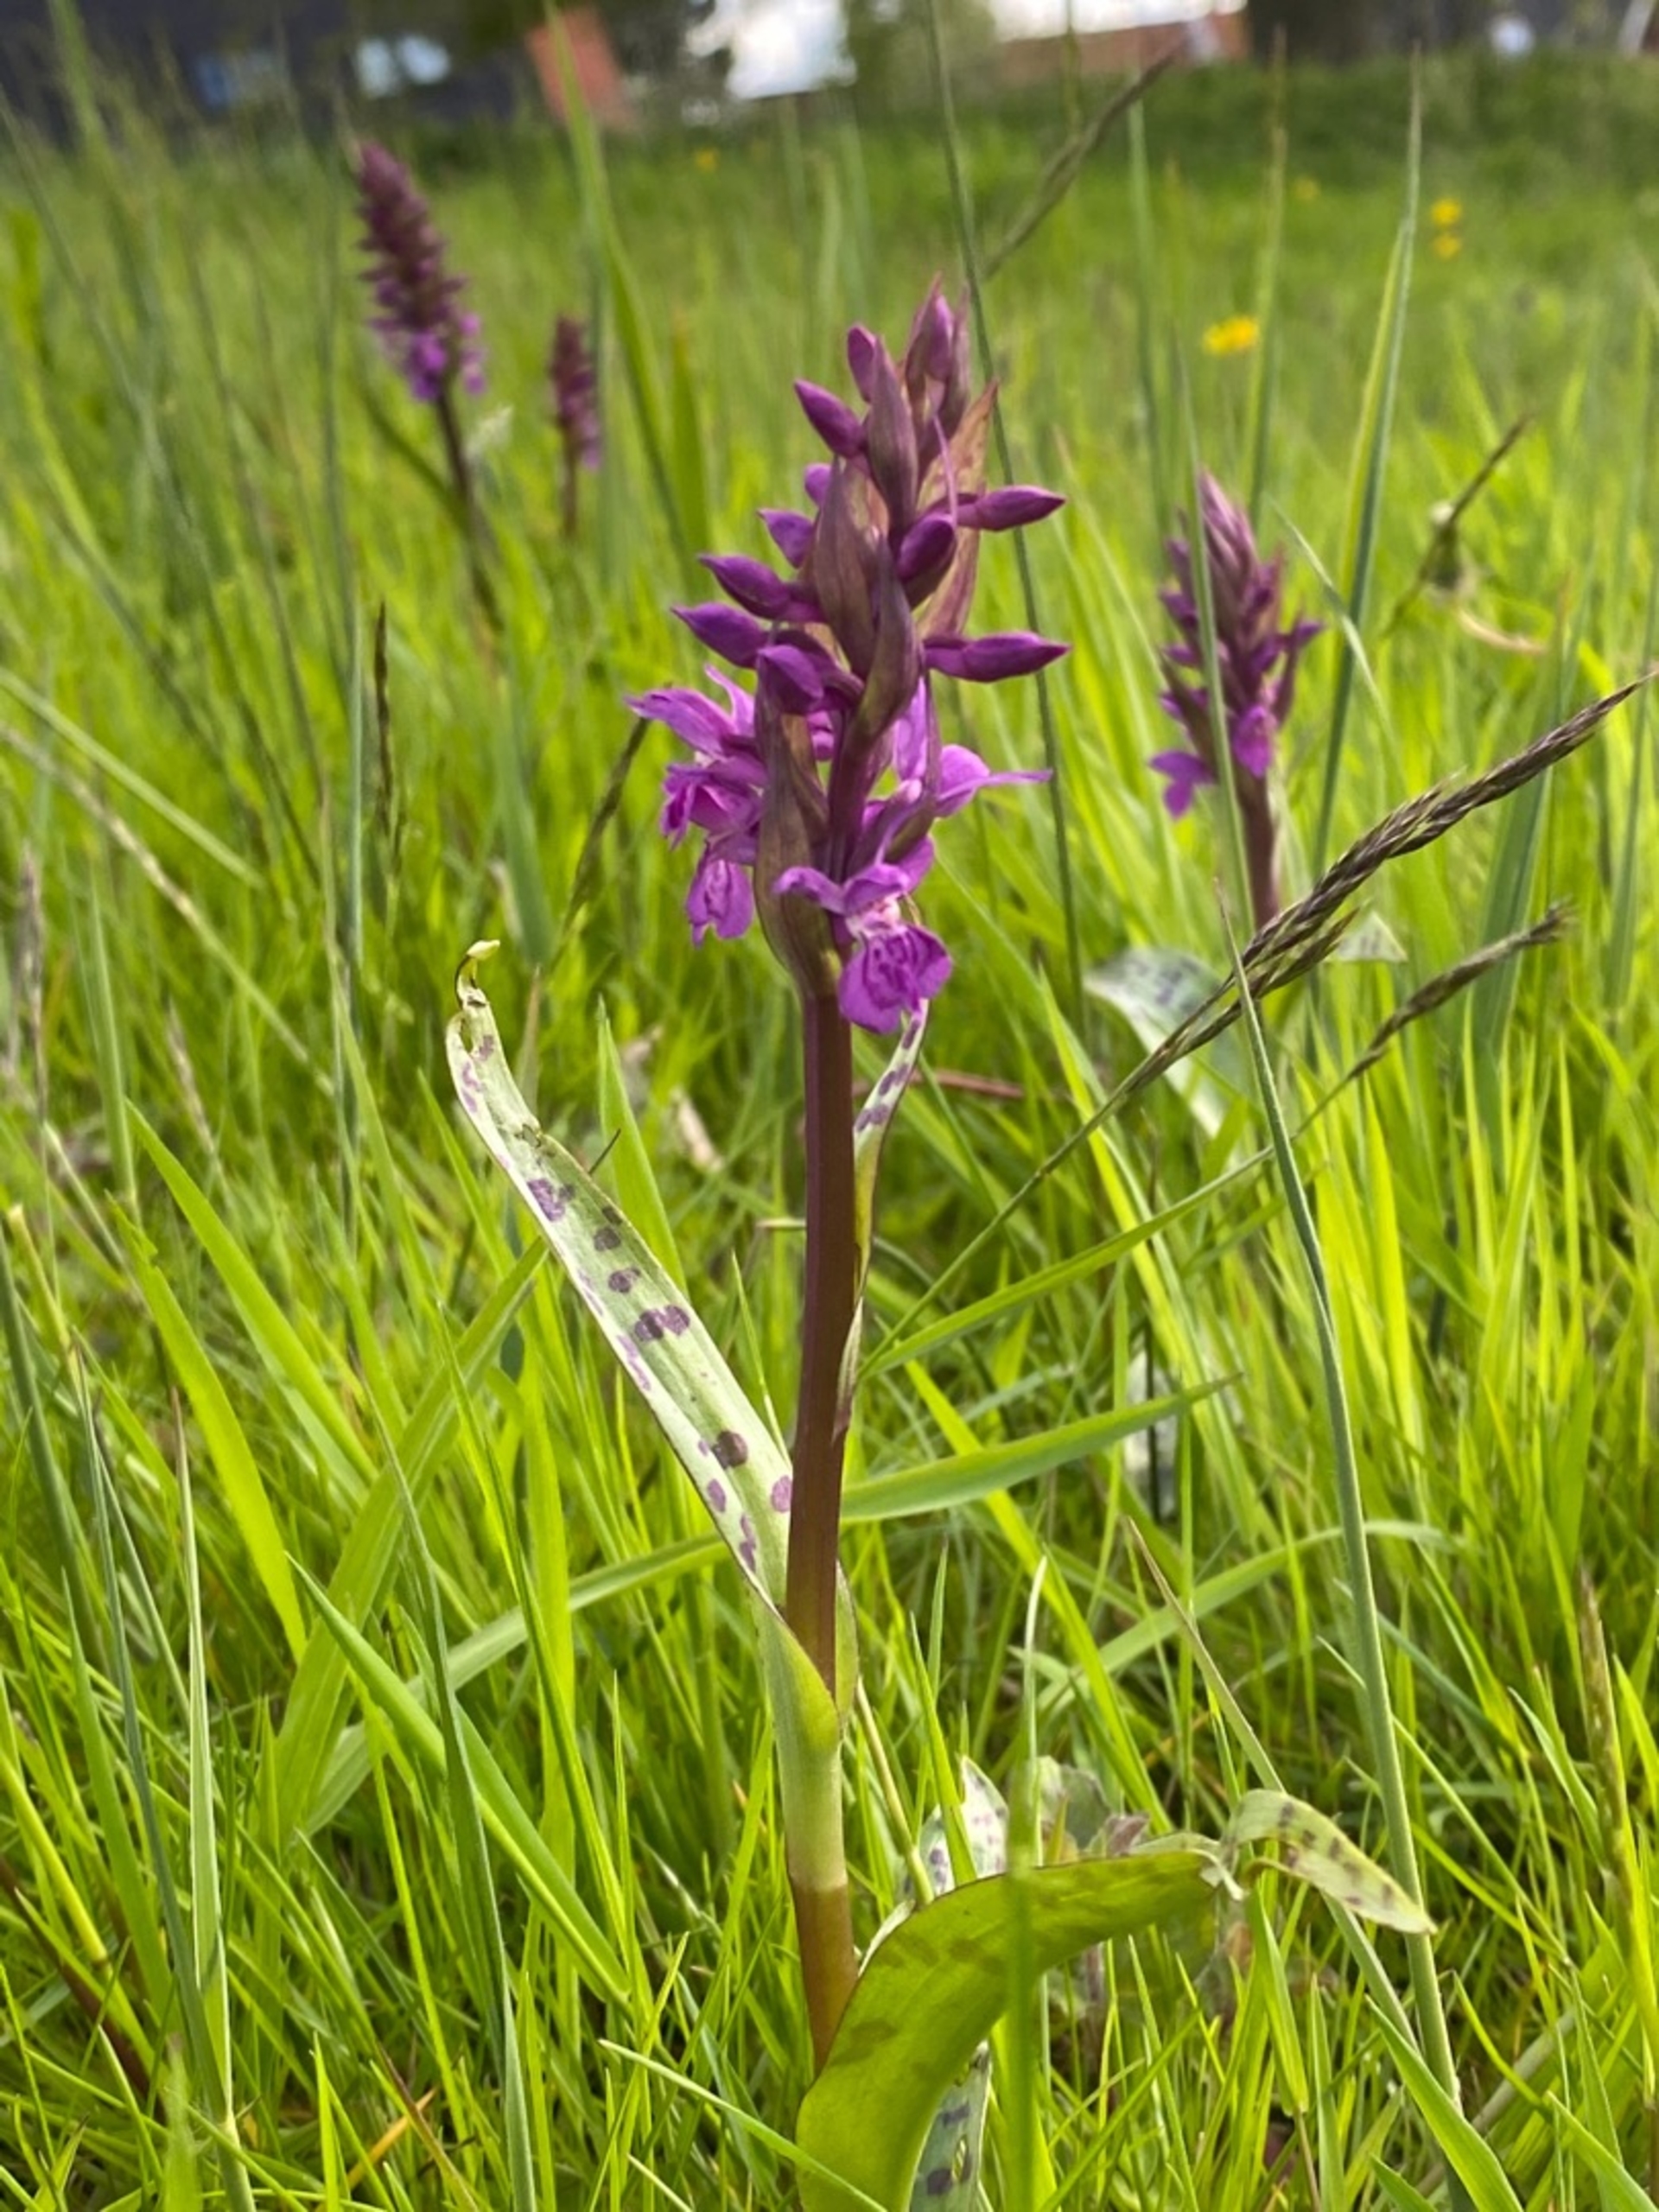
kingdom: Plantae
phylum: Tracheophyta
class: Liliopsida
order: Asparagales
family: Orchidaceae
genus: Dactylorhiza
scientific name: Dactylorhiza majalis
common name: Maj-gøgeurt (underart)
